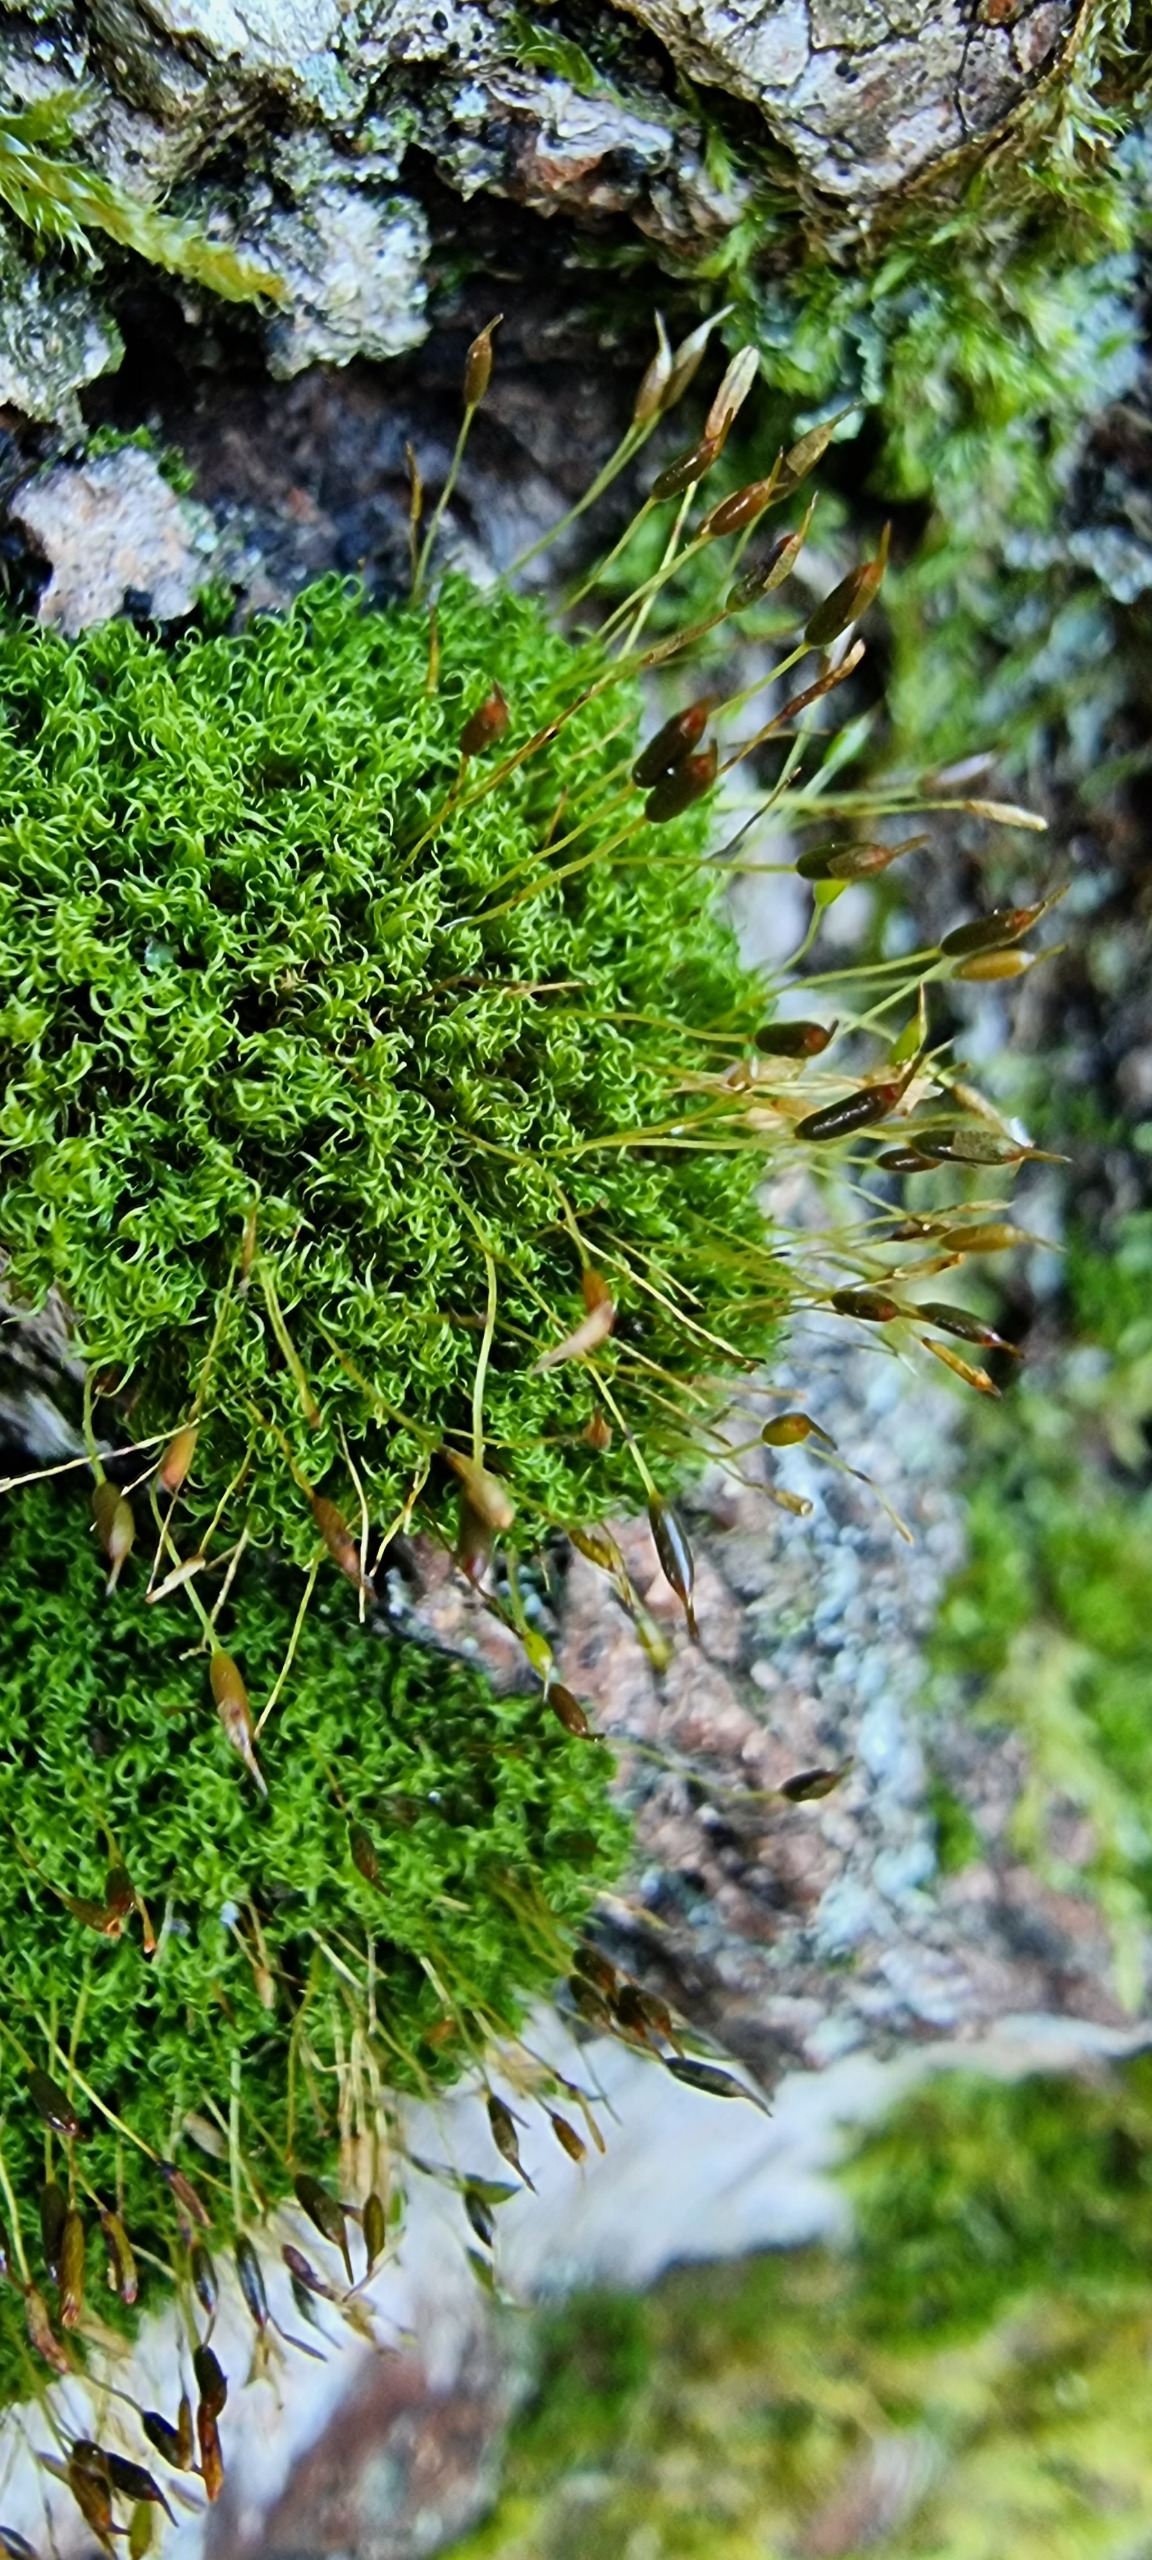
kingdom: Plantae
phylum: Bryophyta
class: Bryopsida
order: Dicranales
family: Rhabdoweisiaceae
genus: Dicranoweisia
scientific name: Dicranoweisia cirrata
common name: Almindelig krøltuemos
